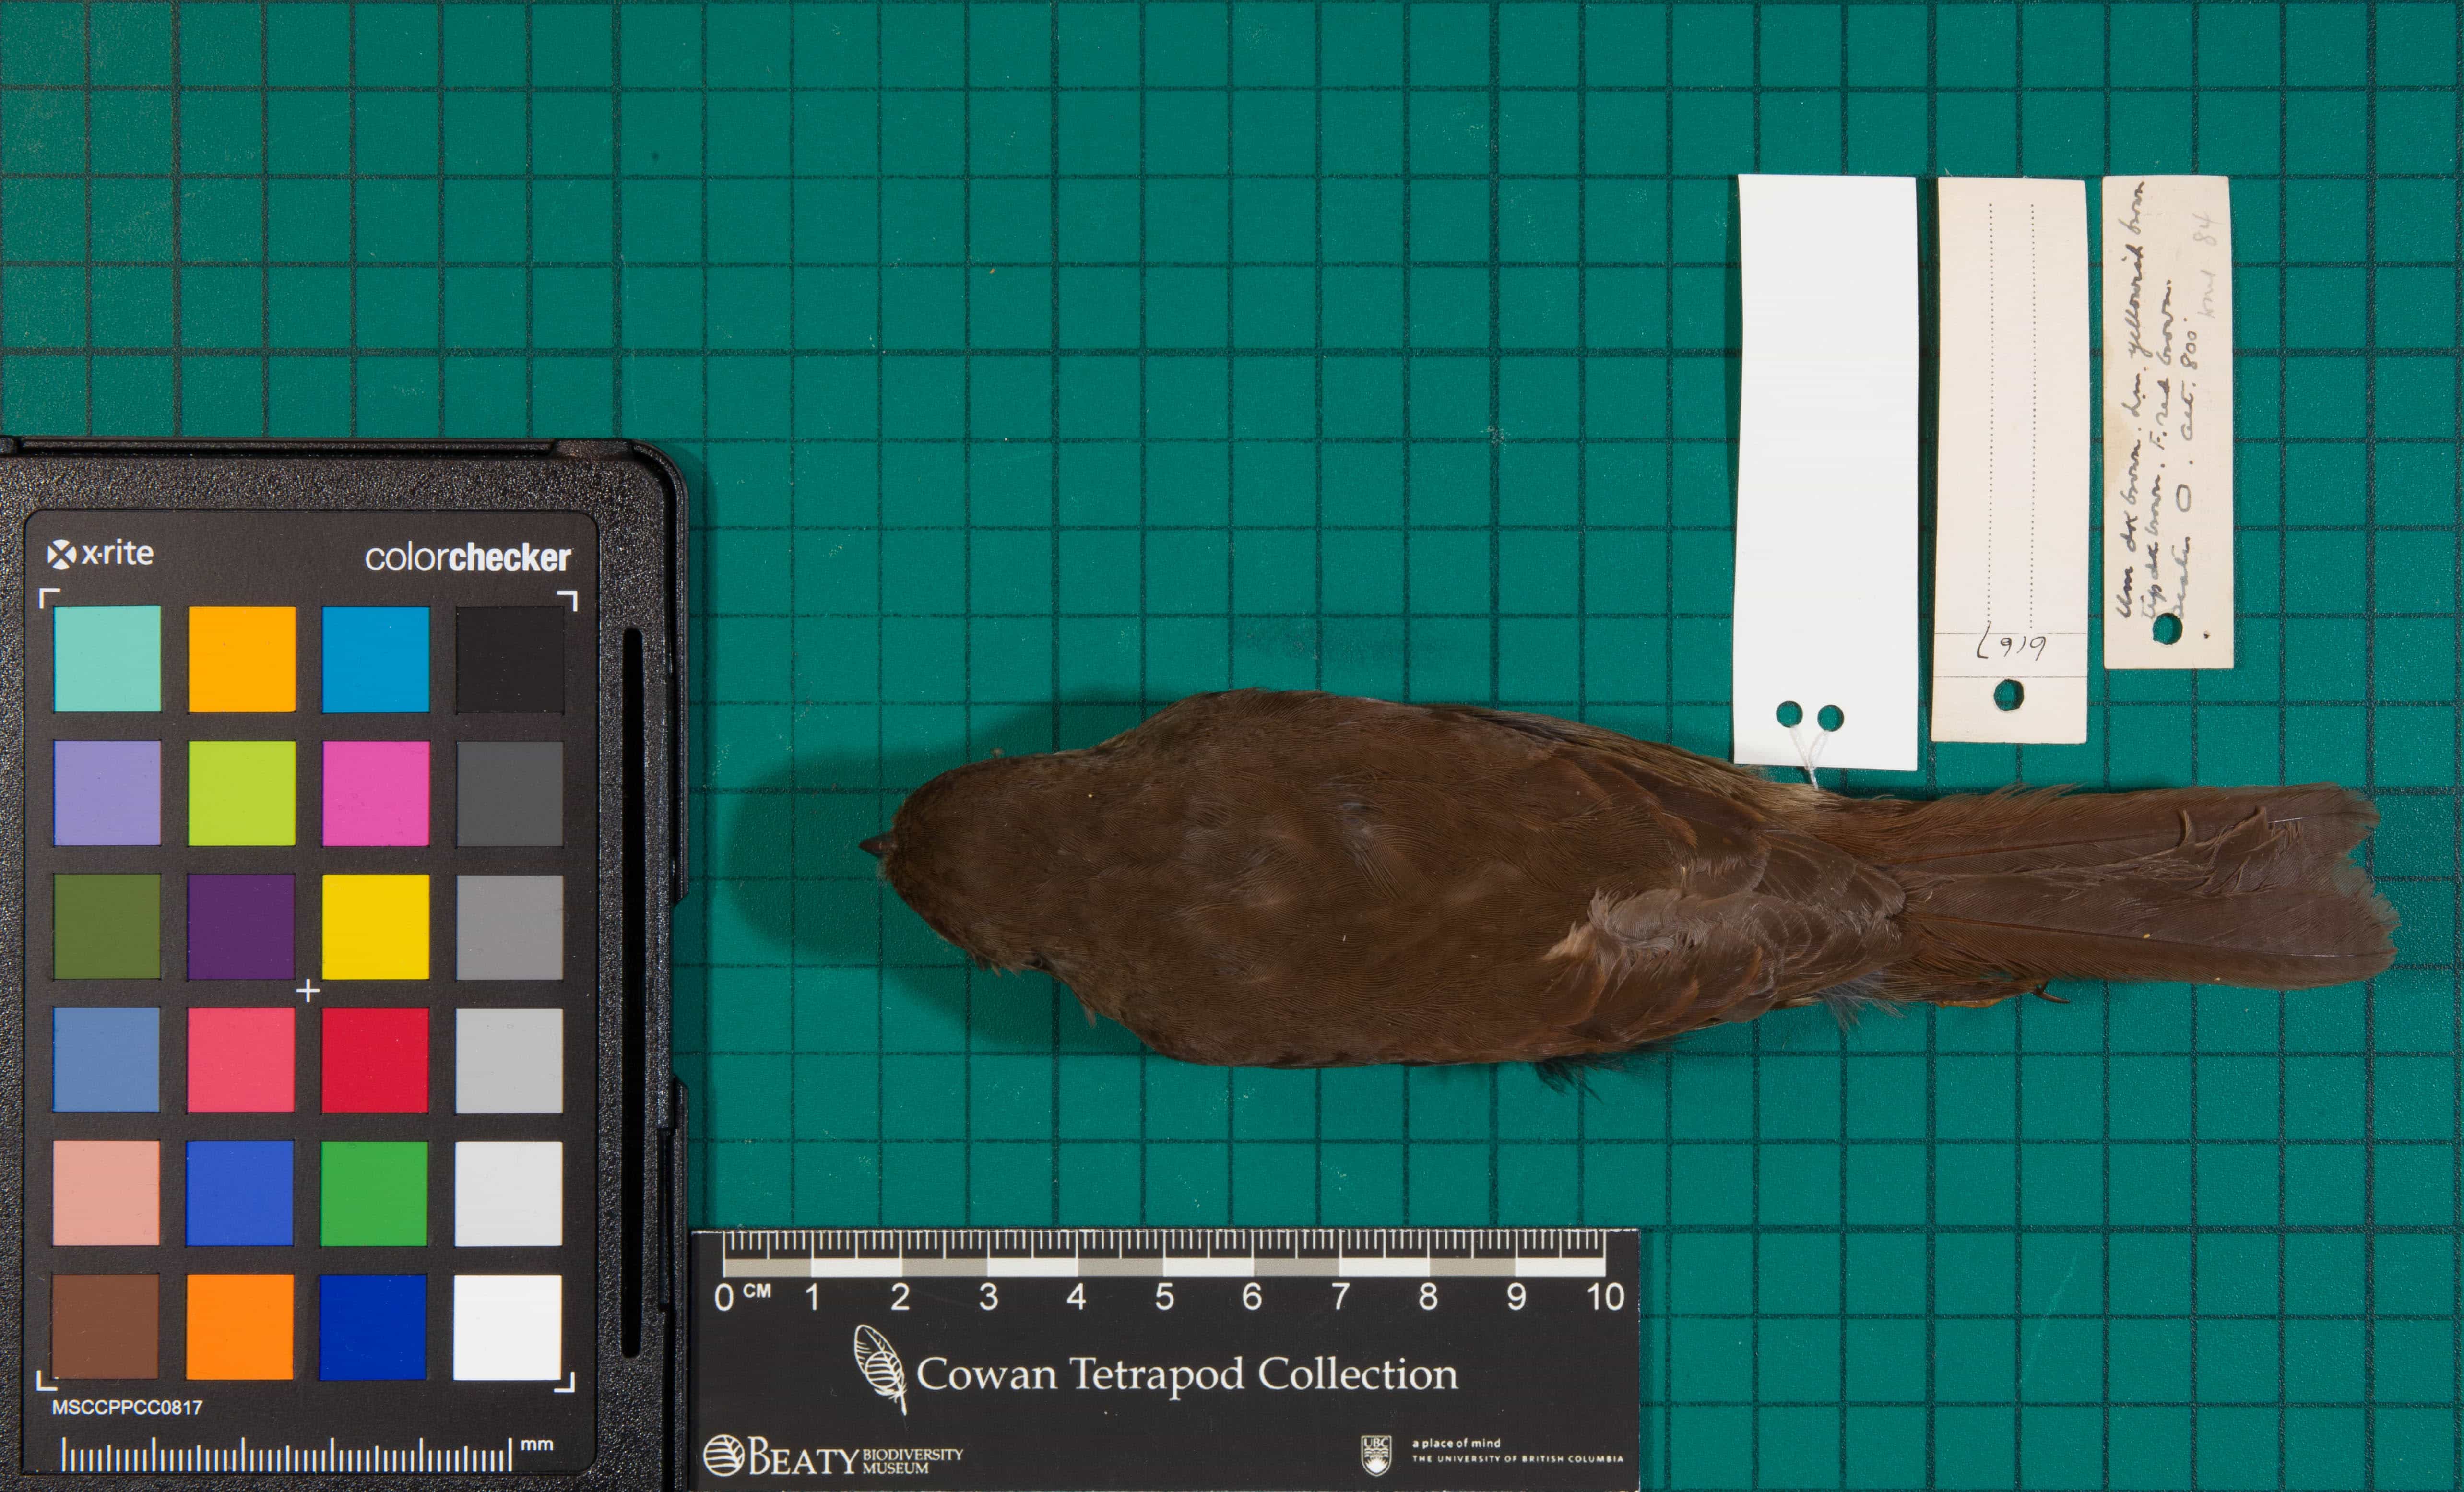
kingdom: Animalia
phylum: Chordata
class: Aves
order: Passeriformes
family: Passerellidae
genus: Passerella
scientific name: Passerella unalaschcensis
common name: Fox Sparrow
